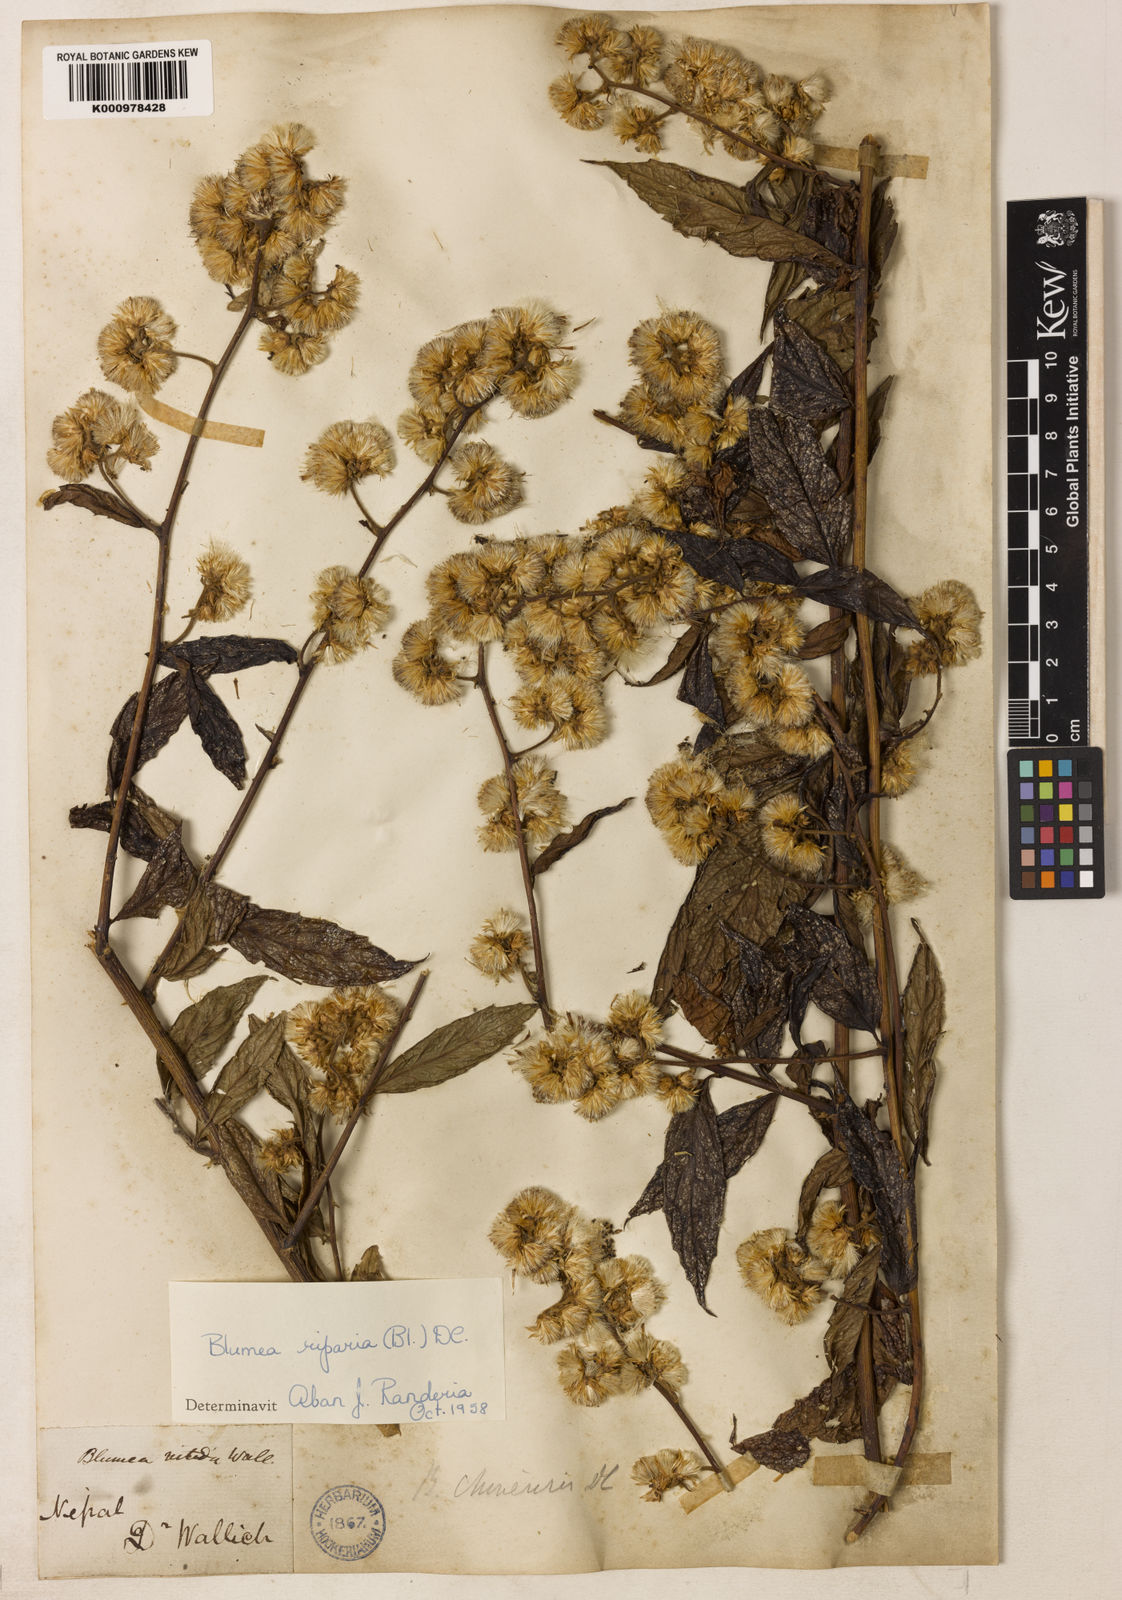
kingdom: Plantae
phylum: Tracheophyta
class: Magnoliopsida
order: Asterales
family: Asteraceae
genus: Blumea
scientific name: Blumea riparia
